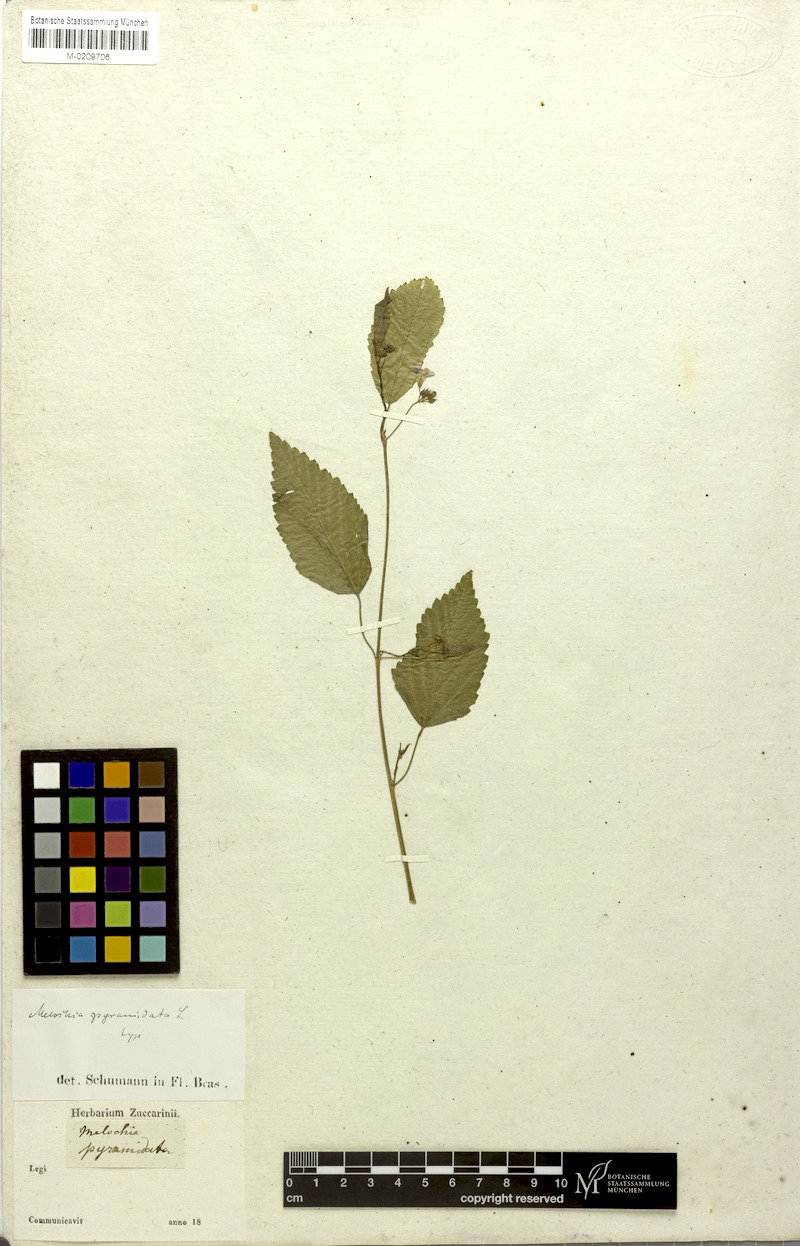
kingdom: Plantae
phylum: Tracheophyta
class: Magnoliopsida
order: Malvales
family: Malvaceae
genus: Melochia
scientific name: Melochia pyramidata
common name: Pyramidflower
